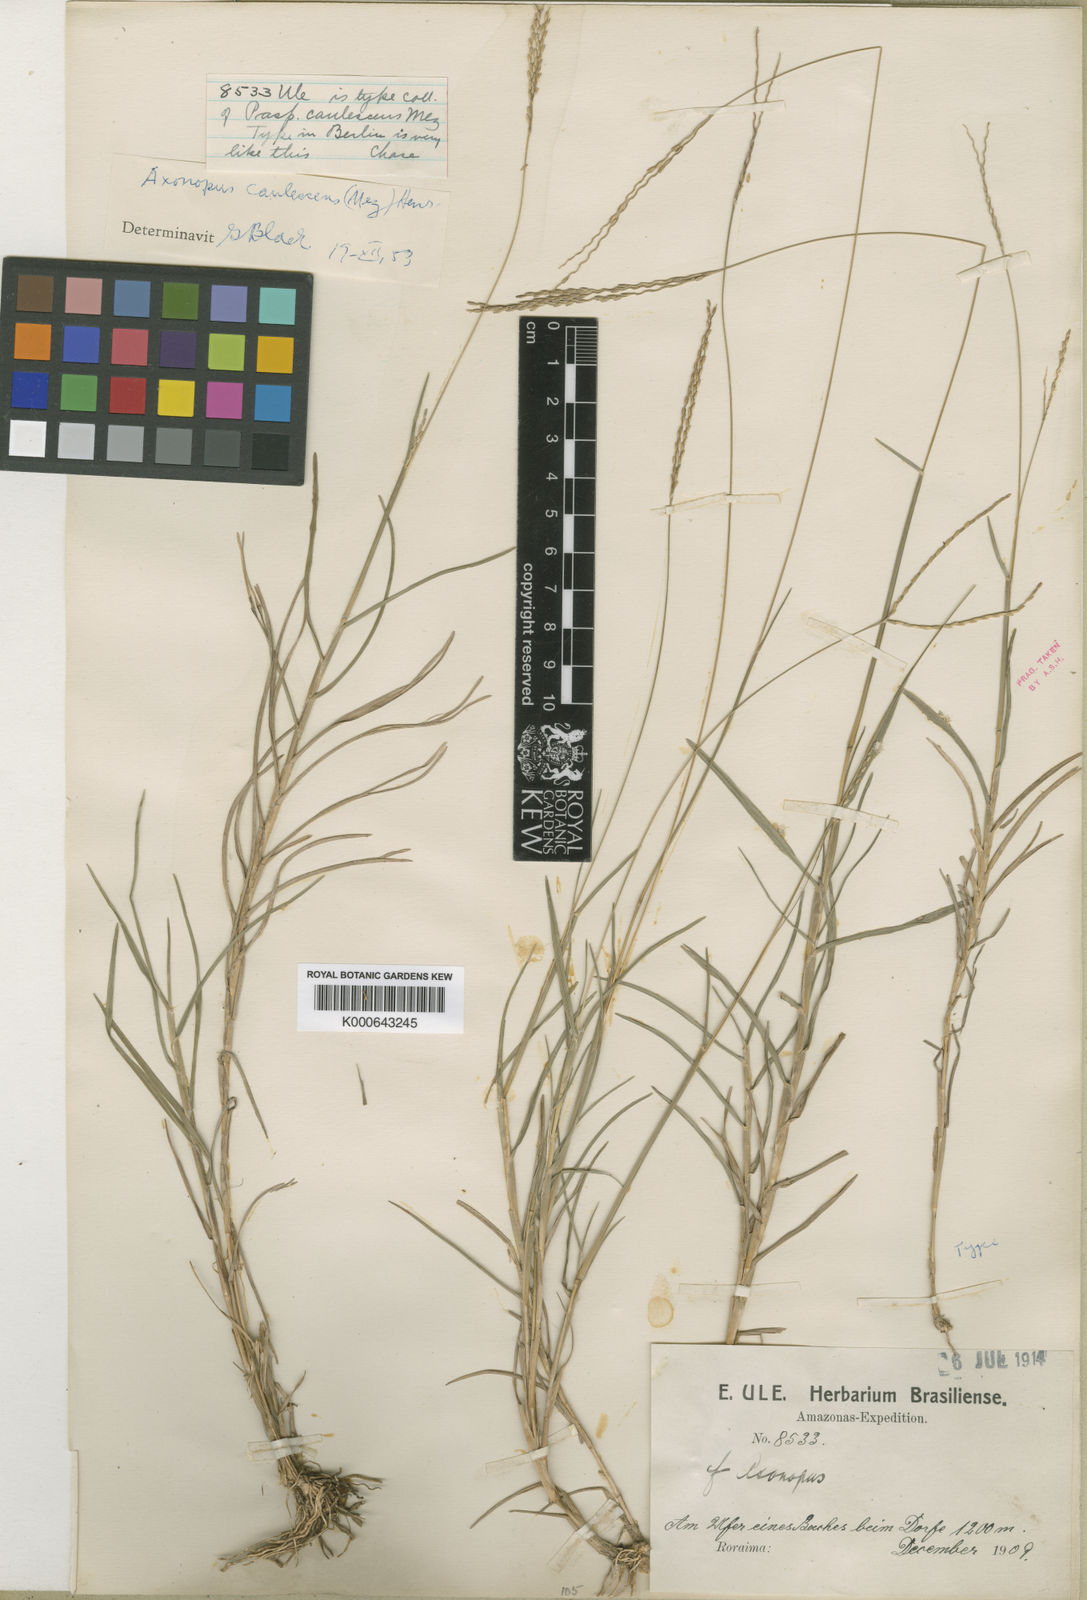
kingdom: Plantae
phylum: Tracheophyta
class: Liliopsida
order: Poales
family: Poaceae
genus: Axonopus
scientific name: Axonopus caulescens
